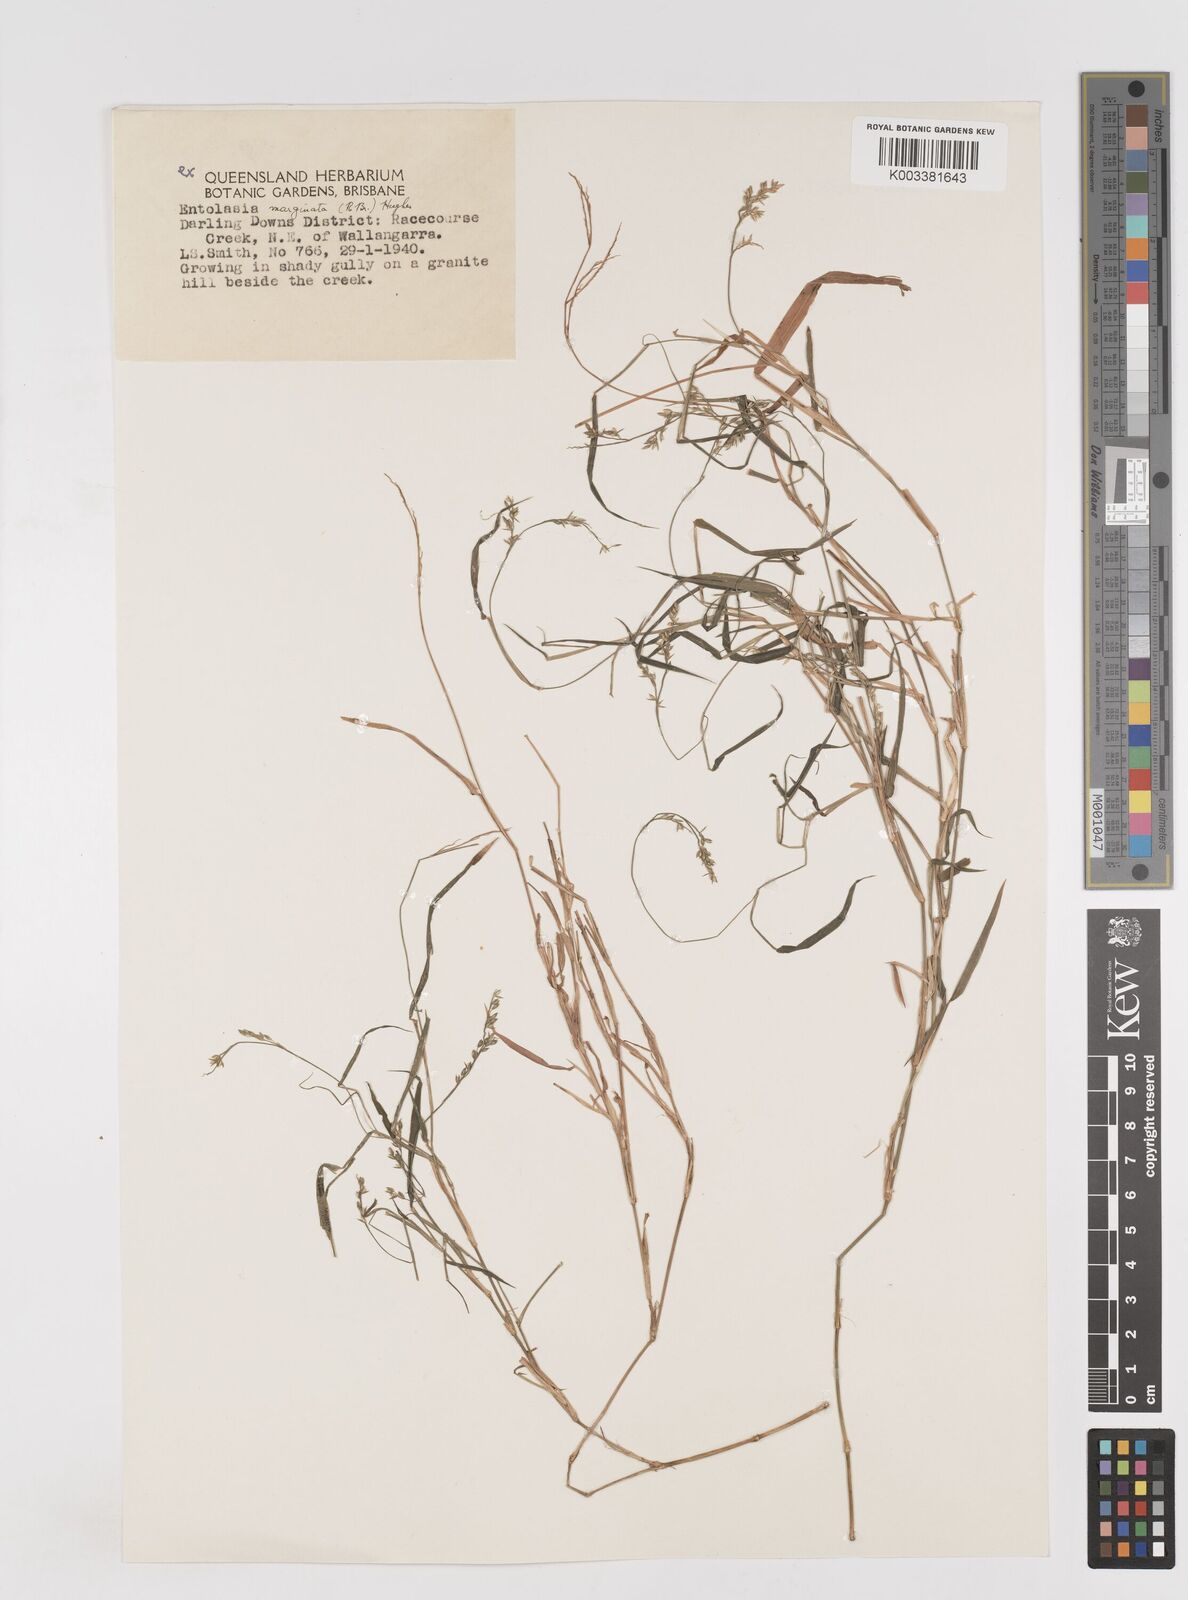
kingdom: Plantae
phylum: Tracheophyta
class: Liliopsida
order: Poales
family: Poaceae
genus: Entolasia
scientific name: Entolasia marginata
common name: Australian panicgrass
